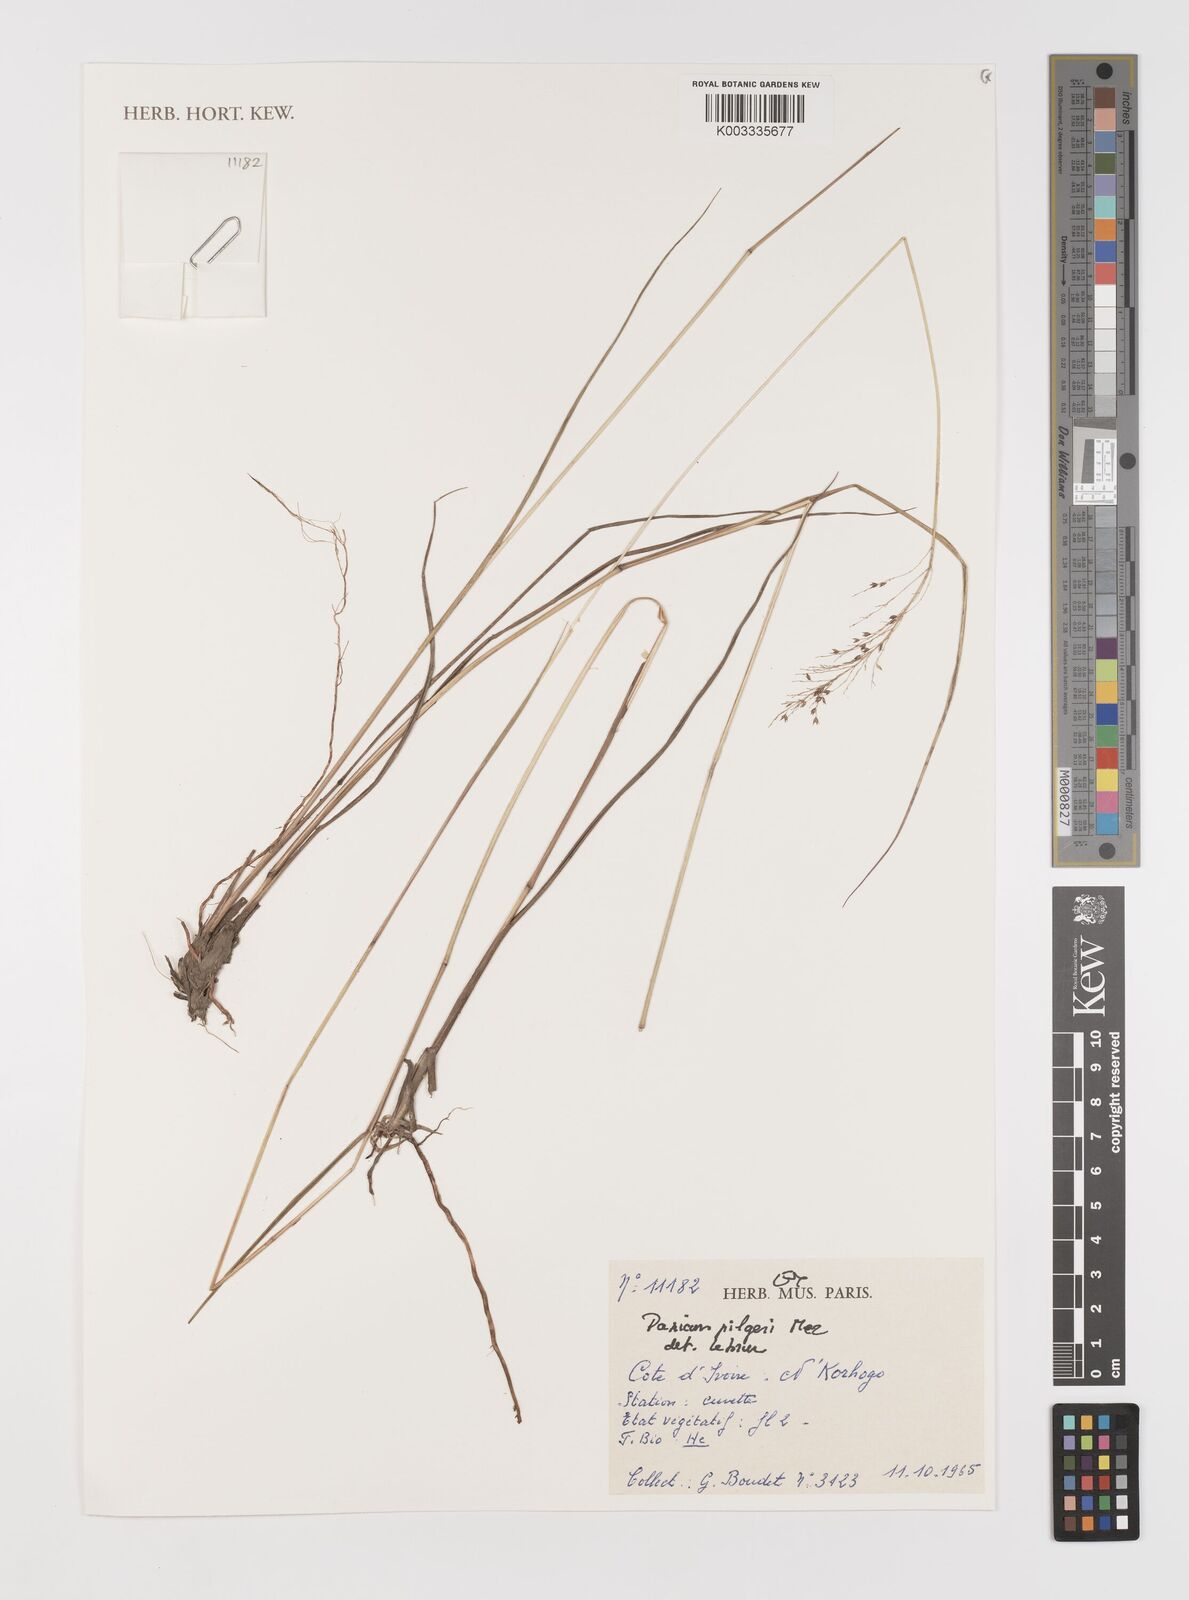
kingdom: Plantae
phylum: Tracheophyta
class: Liliopsida
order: Poales
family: Poaceae
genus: Panicum
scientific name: Panicum
